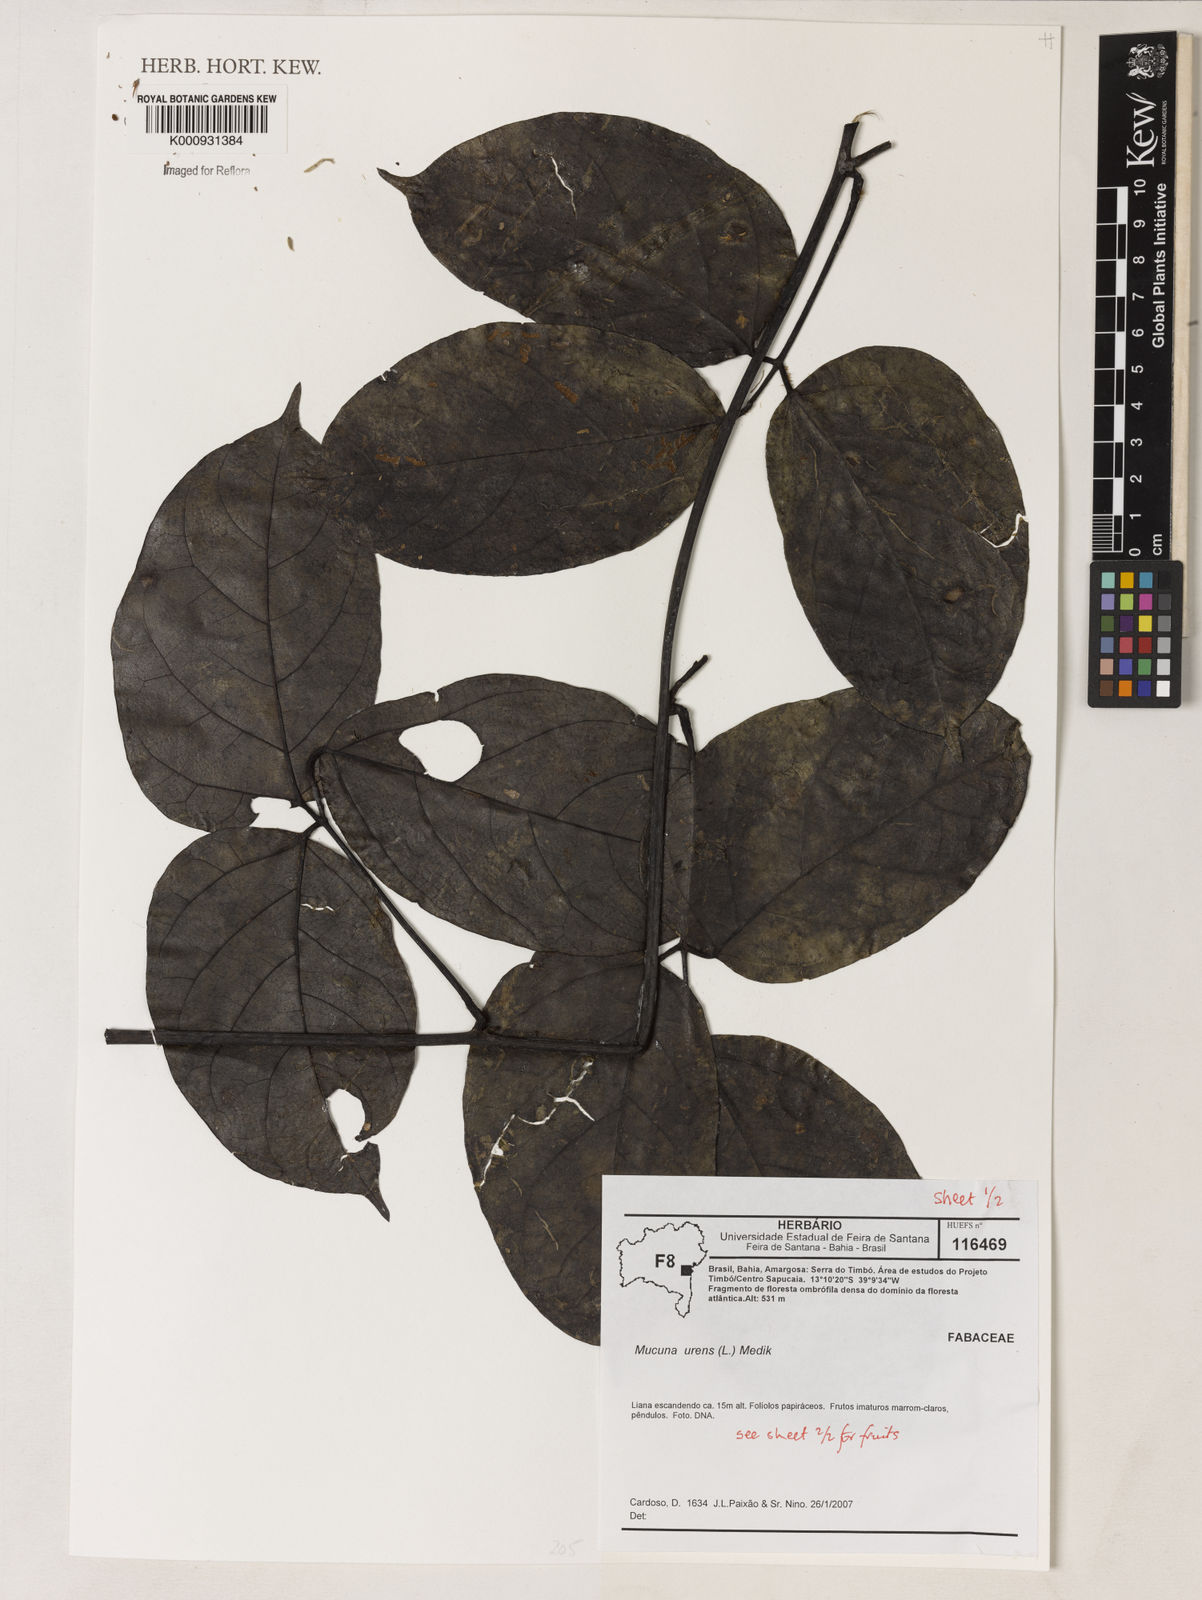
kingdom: Plantae
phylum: Tracheophyta
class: Magnoliopsida
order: Fabales
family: Fabaceae
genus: Mucuna
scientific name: Mucuna urens
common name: Red hamburger bean
